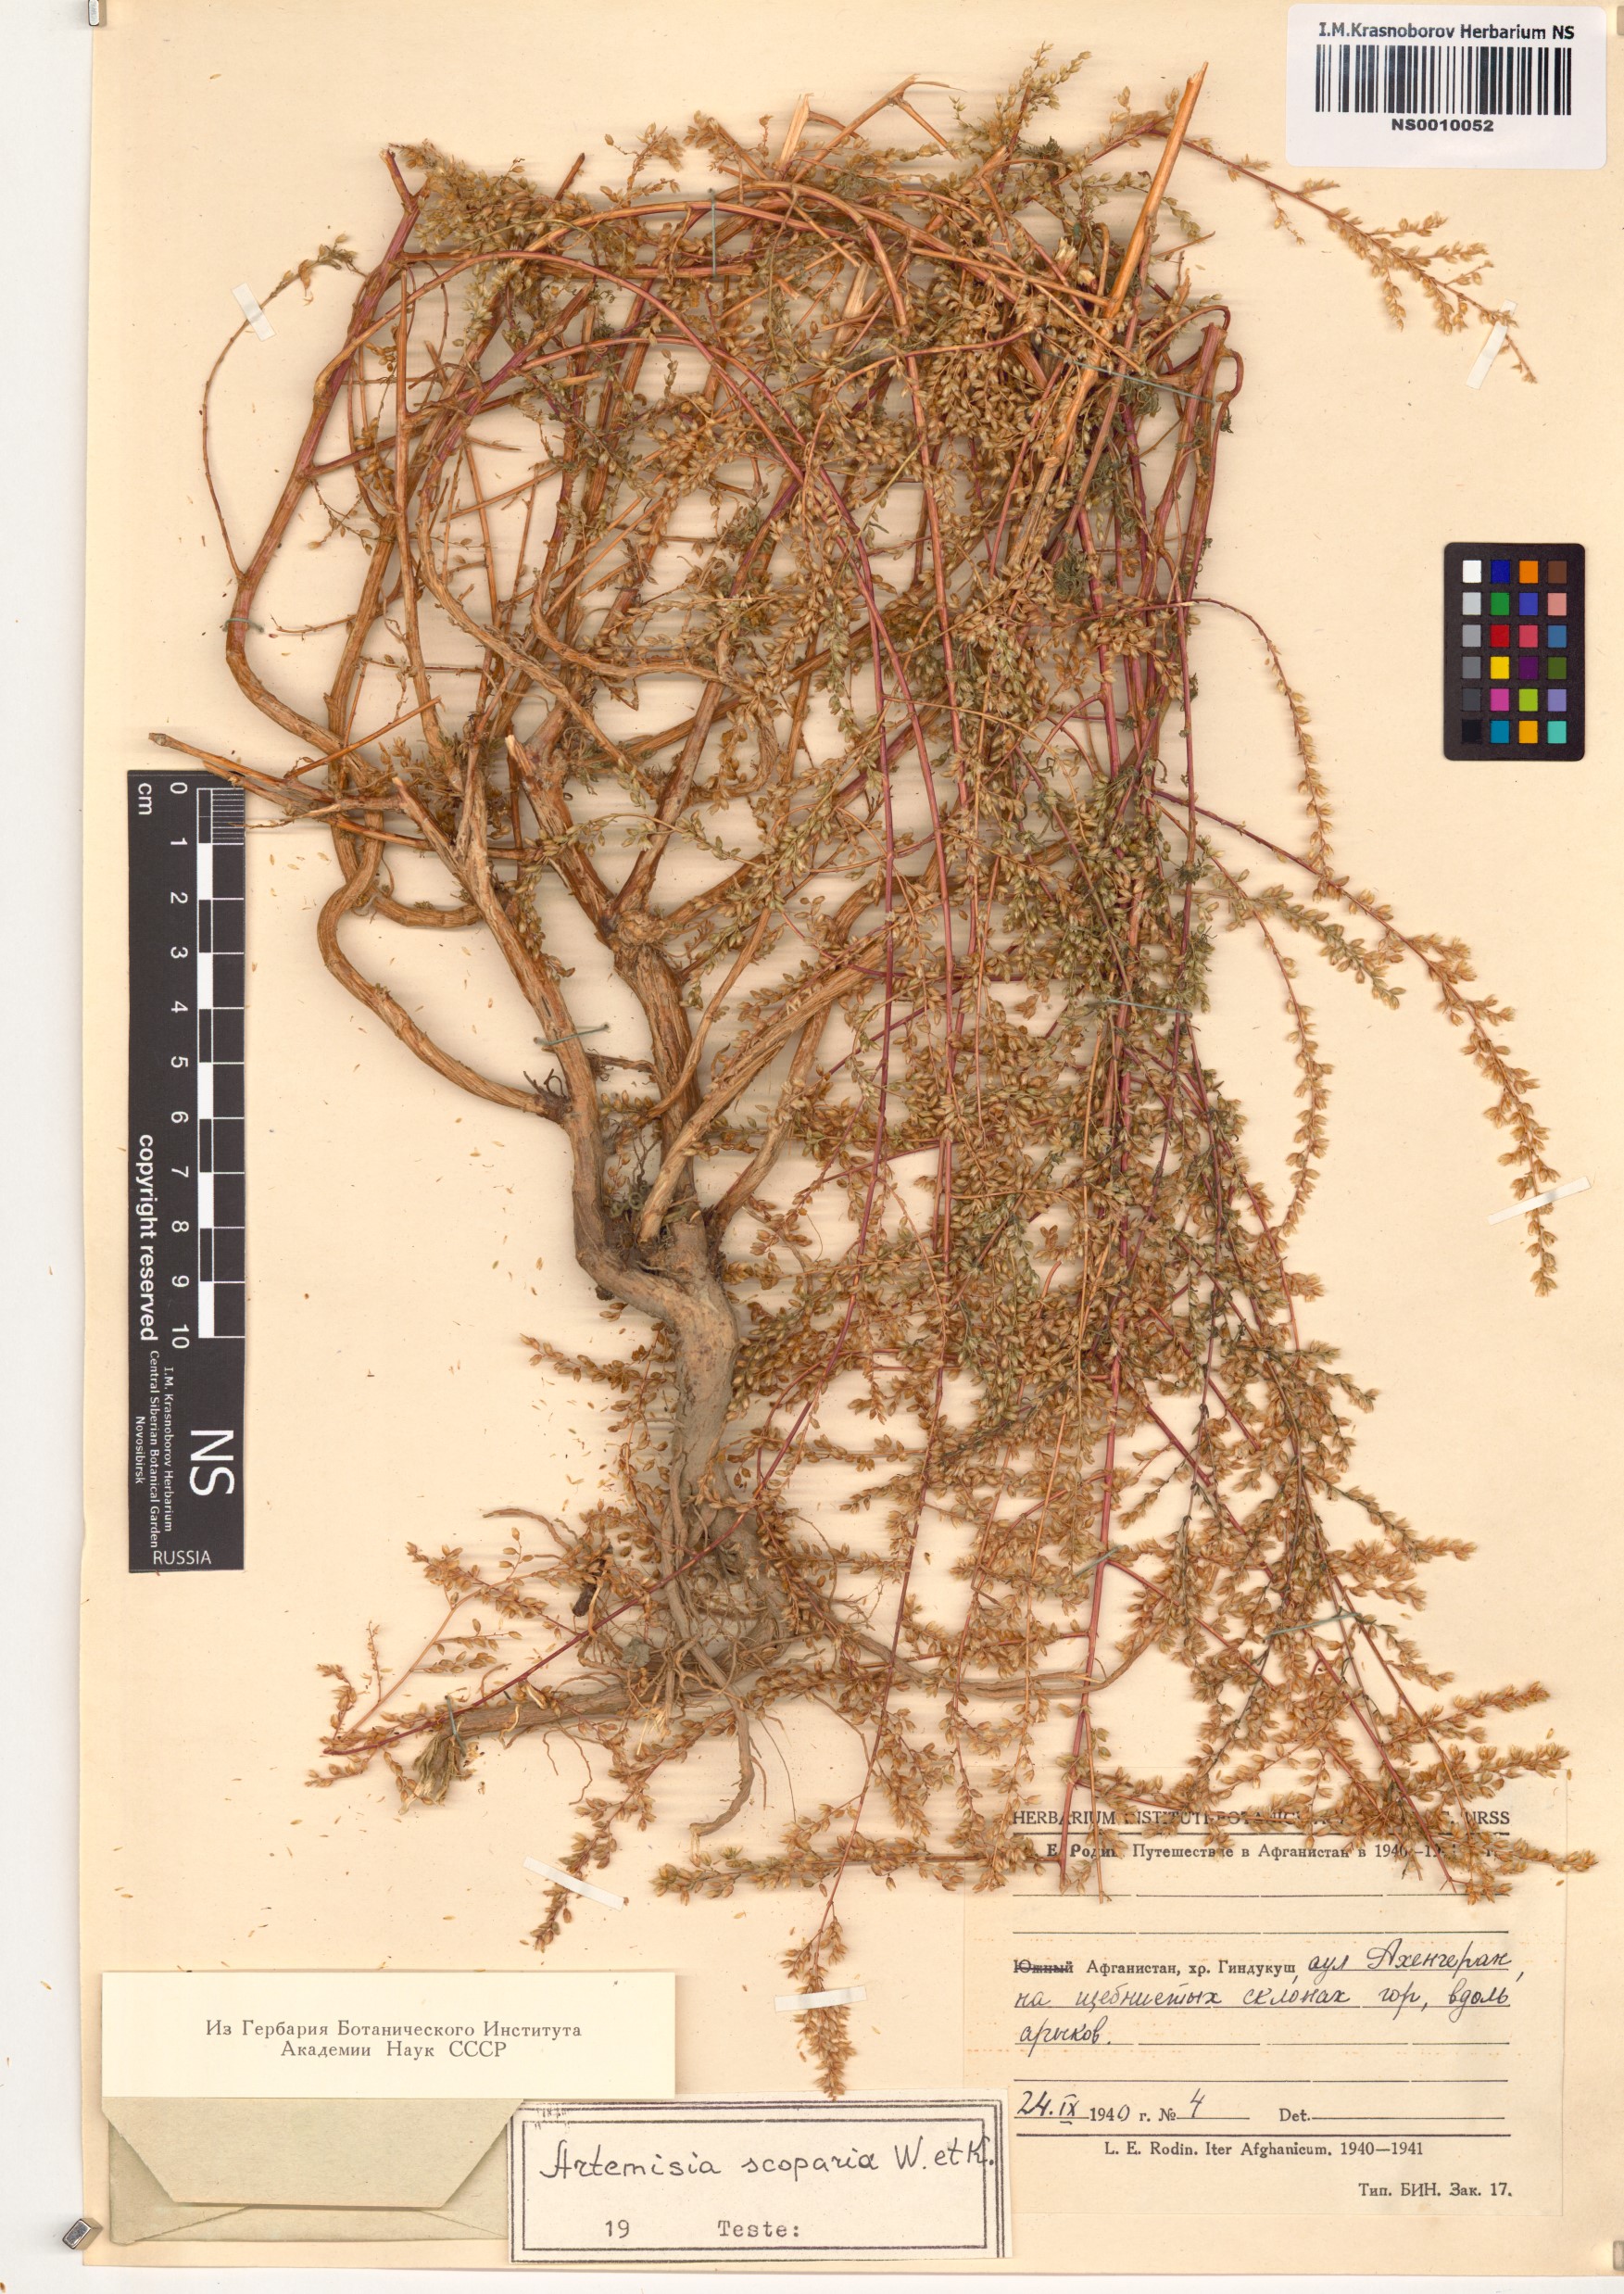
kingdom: Plantae
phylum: Tracheophyta
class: Magnoliopsida
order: Asterales
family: Asteraceae
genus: Artemisia
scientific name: Artemisia scoparia
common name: Redstem wormwood
